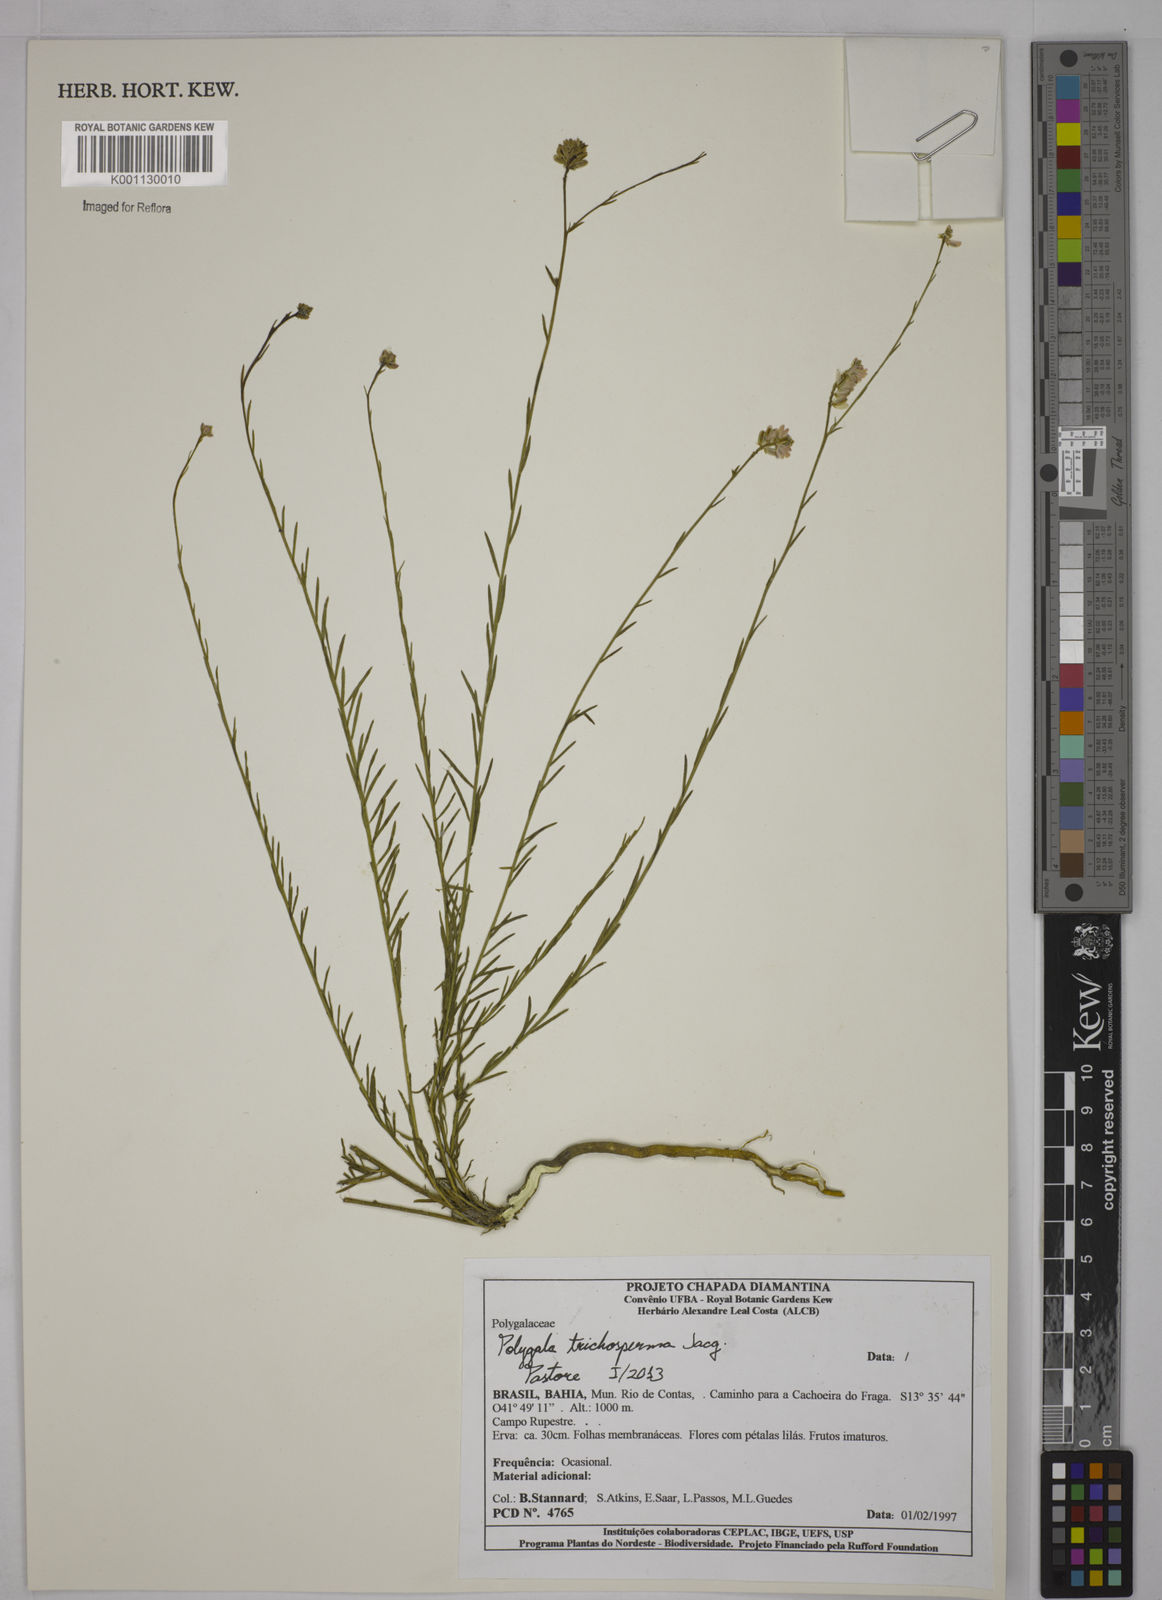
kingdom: Plantae
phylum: Tracheophyta
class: Magnoliopsida
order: Fabales
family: Polygalaceae
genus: Polygala
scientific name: Polygala trichosperma
